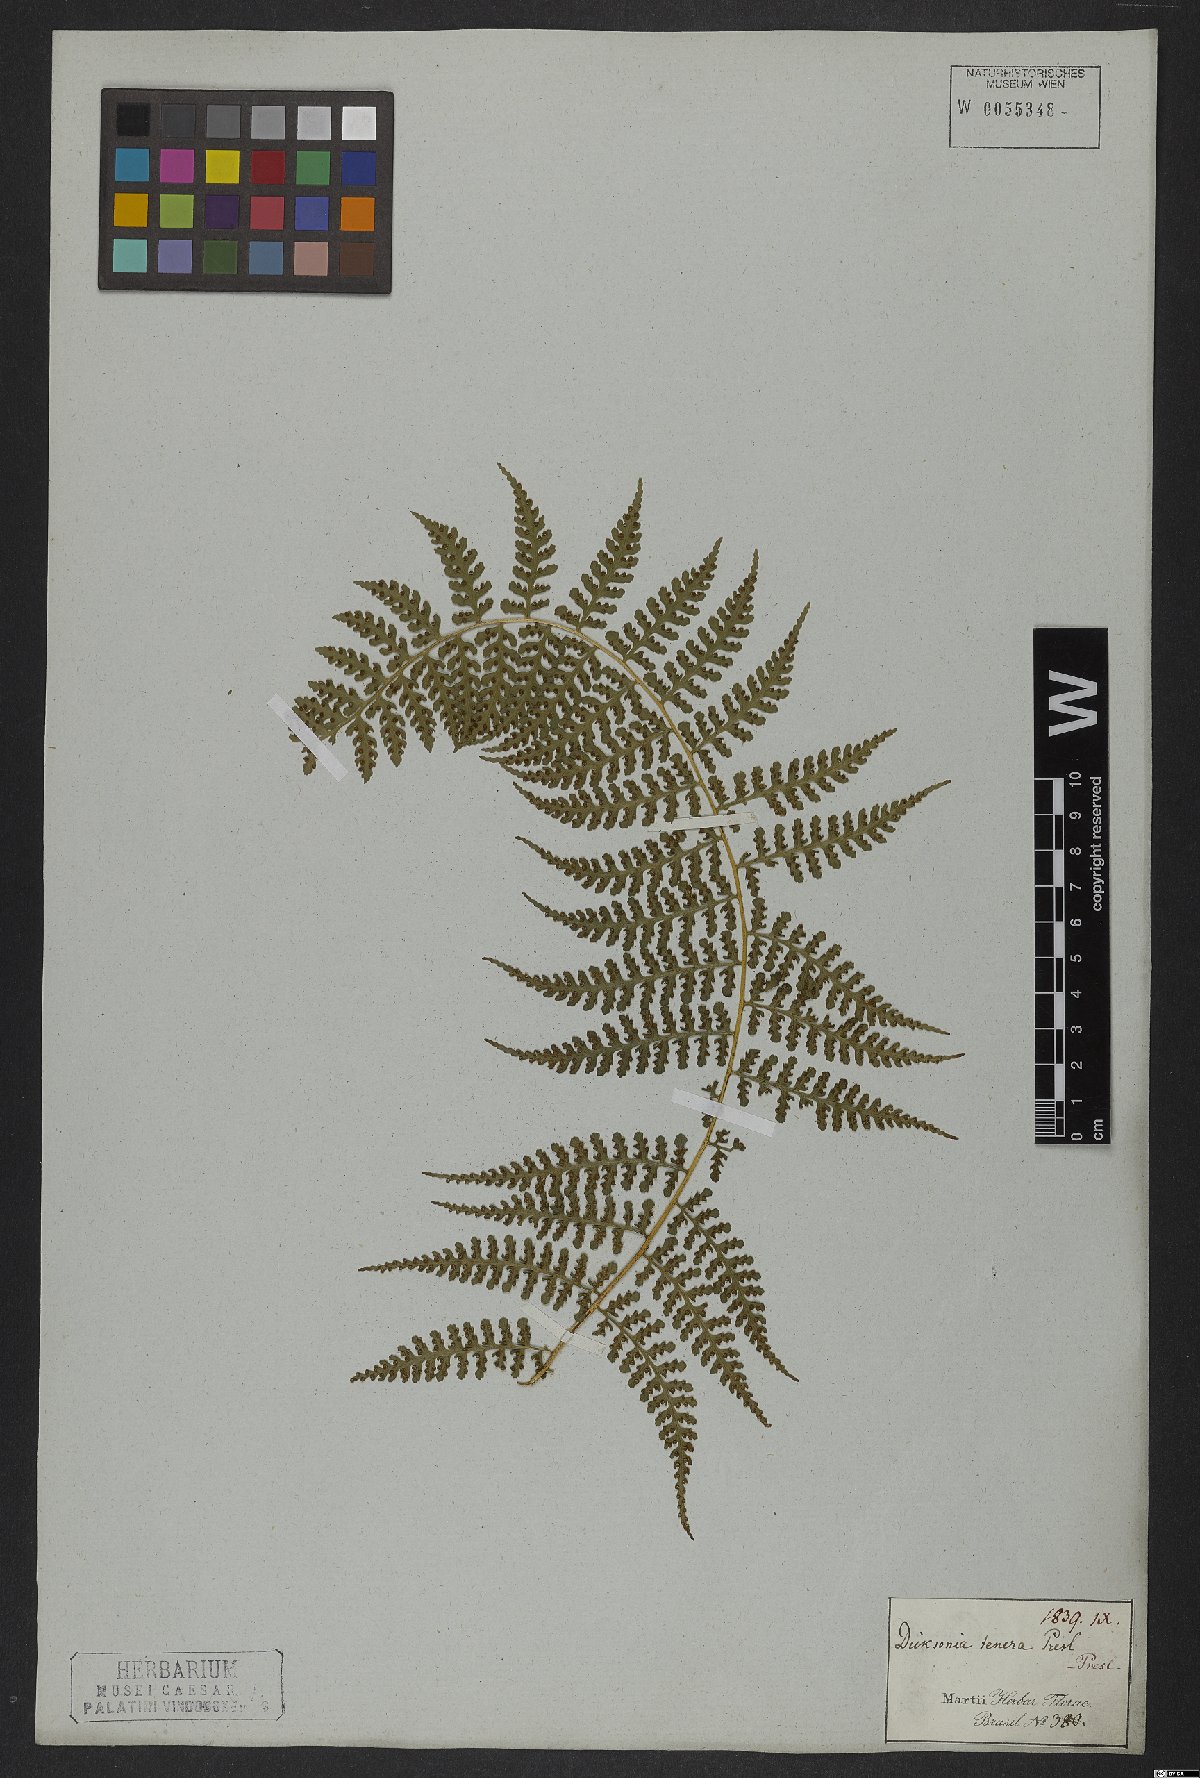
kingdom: Plantae
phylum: Tracheophyta
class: Polypodiopsida
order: Polypodiales
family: Dennstaedtiaceae
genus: Mucura
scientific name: Mucura globulifera
